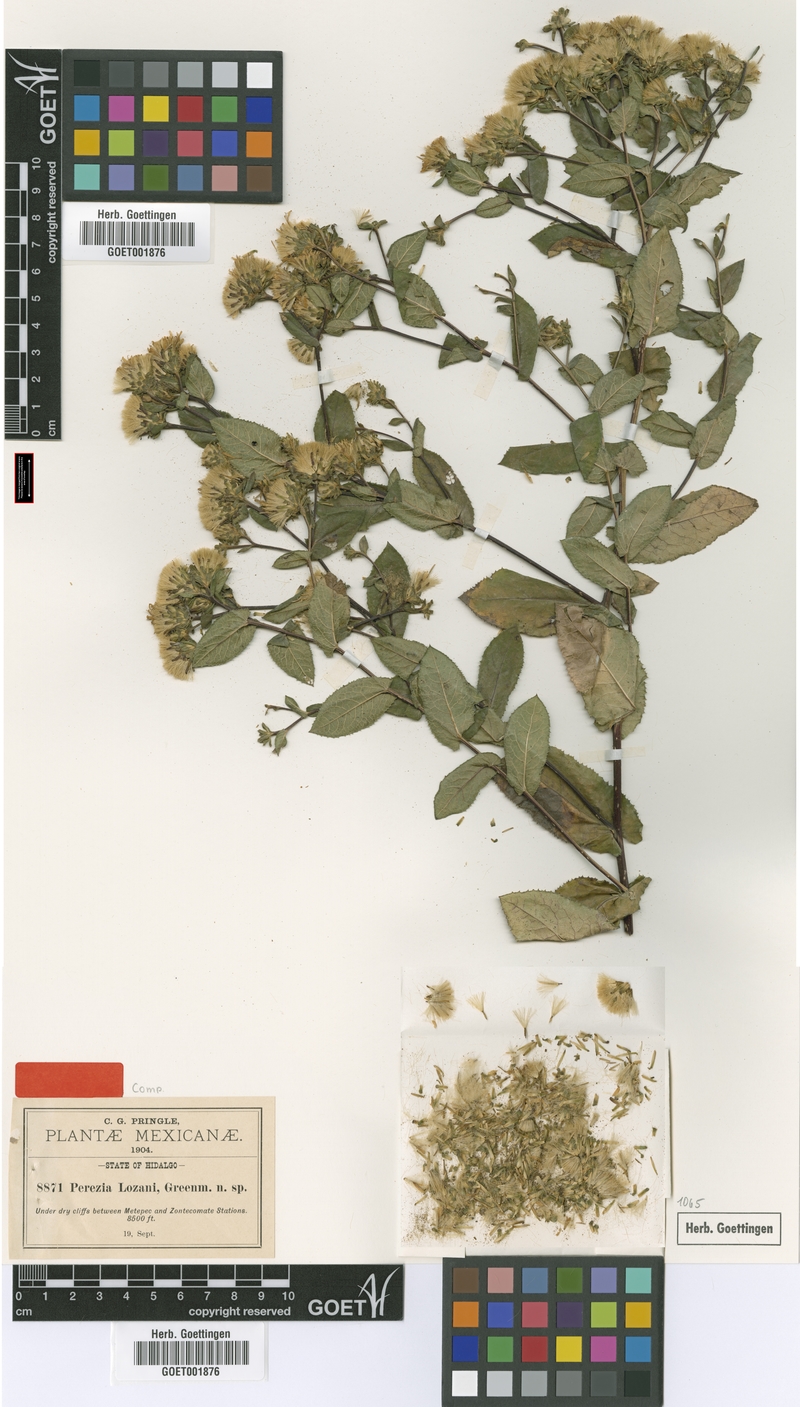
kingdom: Plantae
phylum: Tracheophyta
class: Magnoliopsida
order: Asterales
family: Asteraceae
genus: Acourtia
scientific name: Acourtia lozanoi
